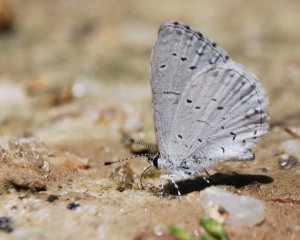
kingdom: Animalia
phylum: Arthropoda
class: Insecta
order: Lepidoptera
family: Lycaenidae
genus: Cyaniris
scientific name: Cyaniris neglecta
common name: Summer Azure
